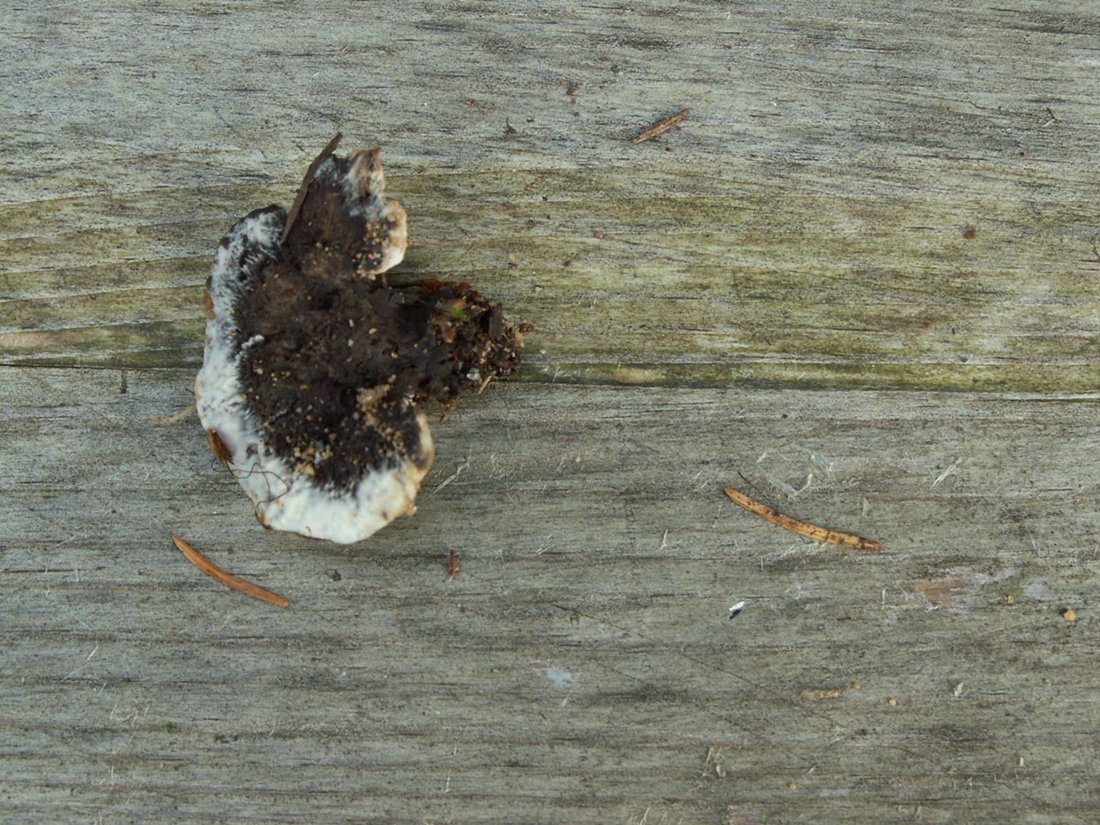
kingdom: Fungi
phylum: Basidiomycota
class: Agaricomycetes
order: Thelephorales
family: Thelephoraceae
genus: Phellodon
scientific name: Phellodon confluens
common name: pjaltet duftpigsvamp
